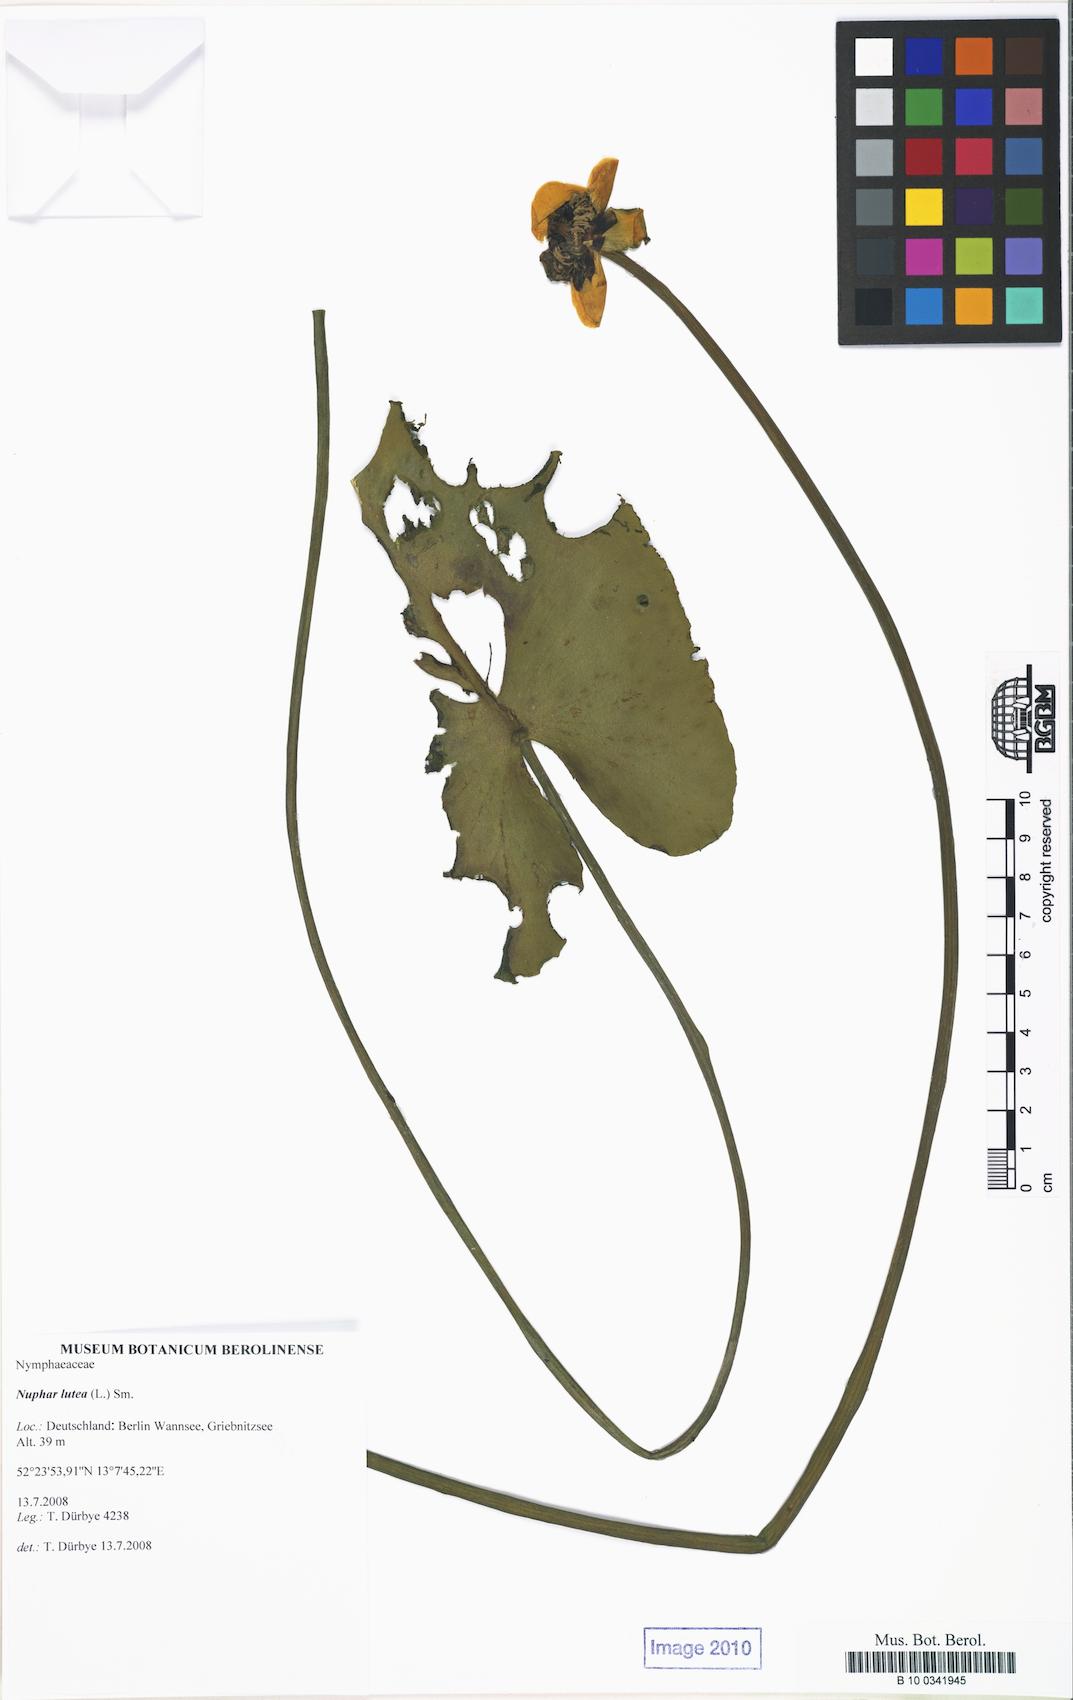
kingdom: Plantae
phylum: Tracheophyta
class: Magnoliopsida
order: Nymphaeales
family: Nymphaeaceae
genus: Nuphar
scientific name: Nuphar lutea
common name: Yellow water-lily
